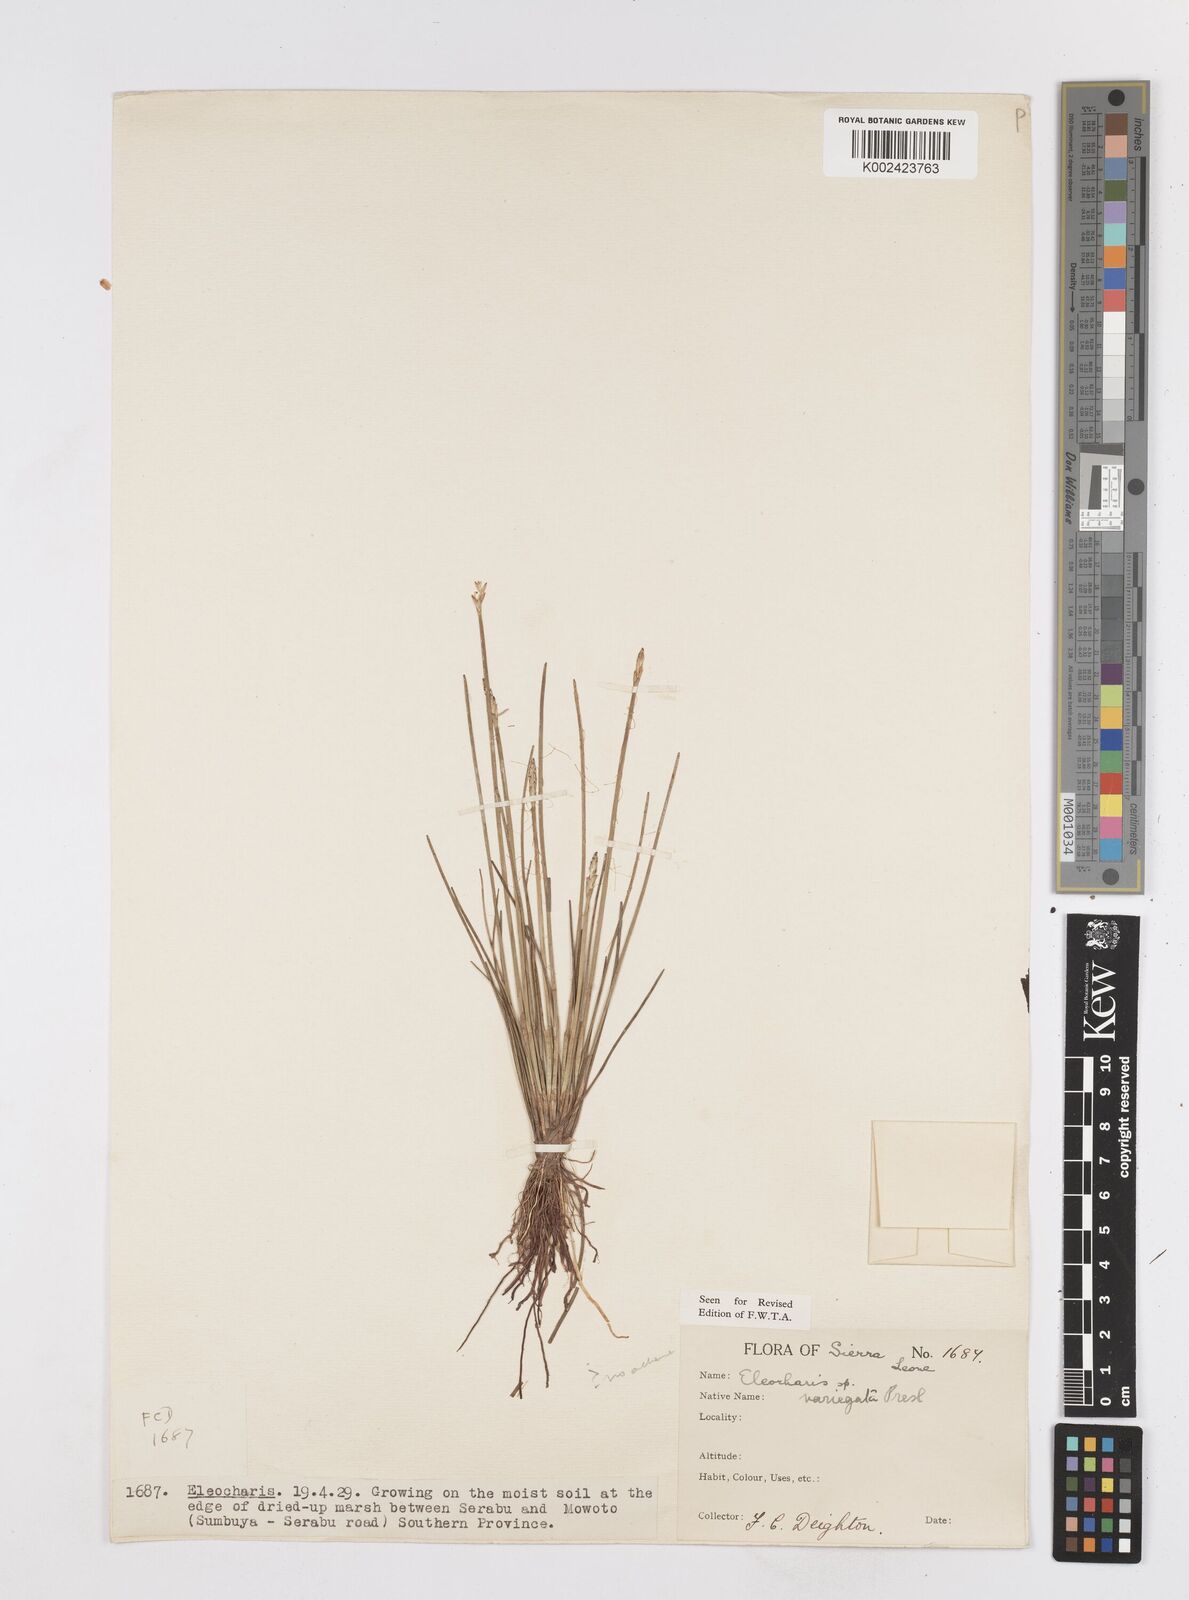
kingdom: Plantae
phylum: Tracheophyta
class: Liliopsida
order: Poales
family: Cyperaceae
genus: Eleocharis
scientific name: Eleocharis variegata
